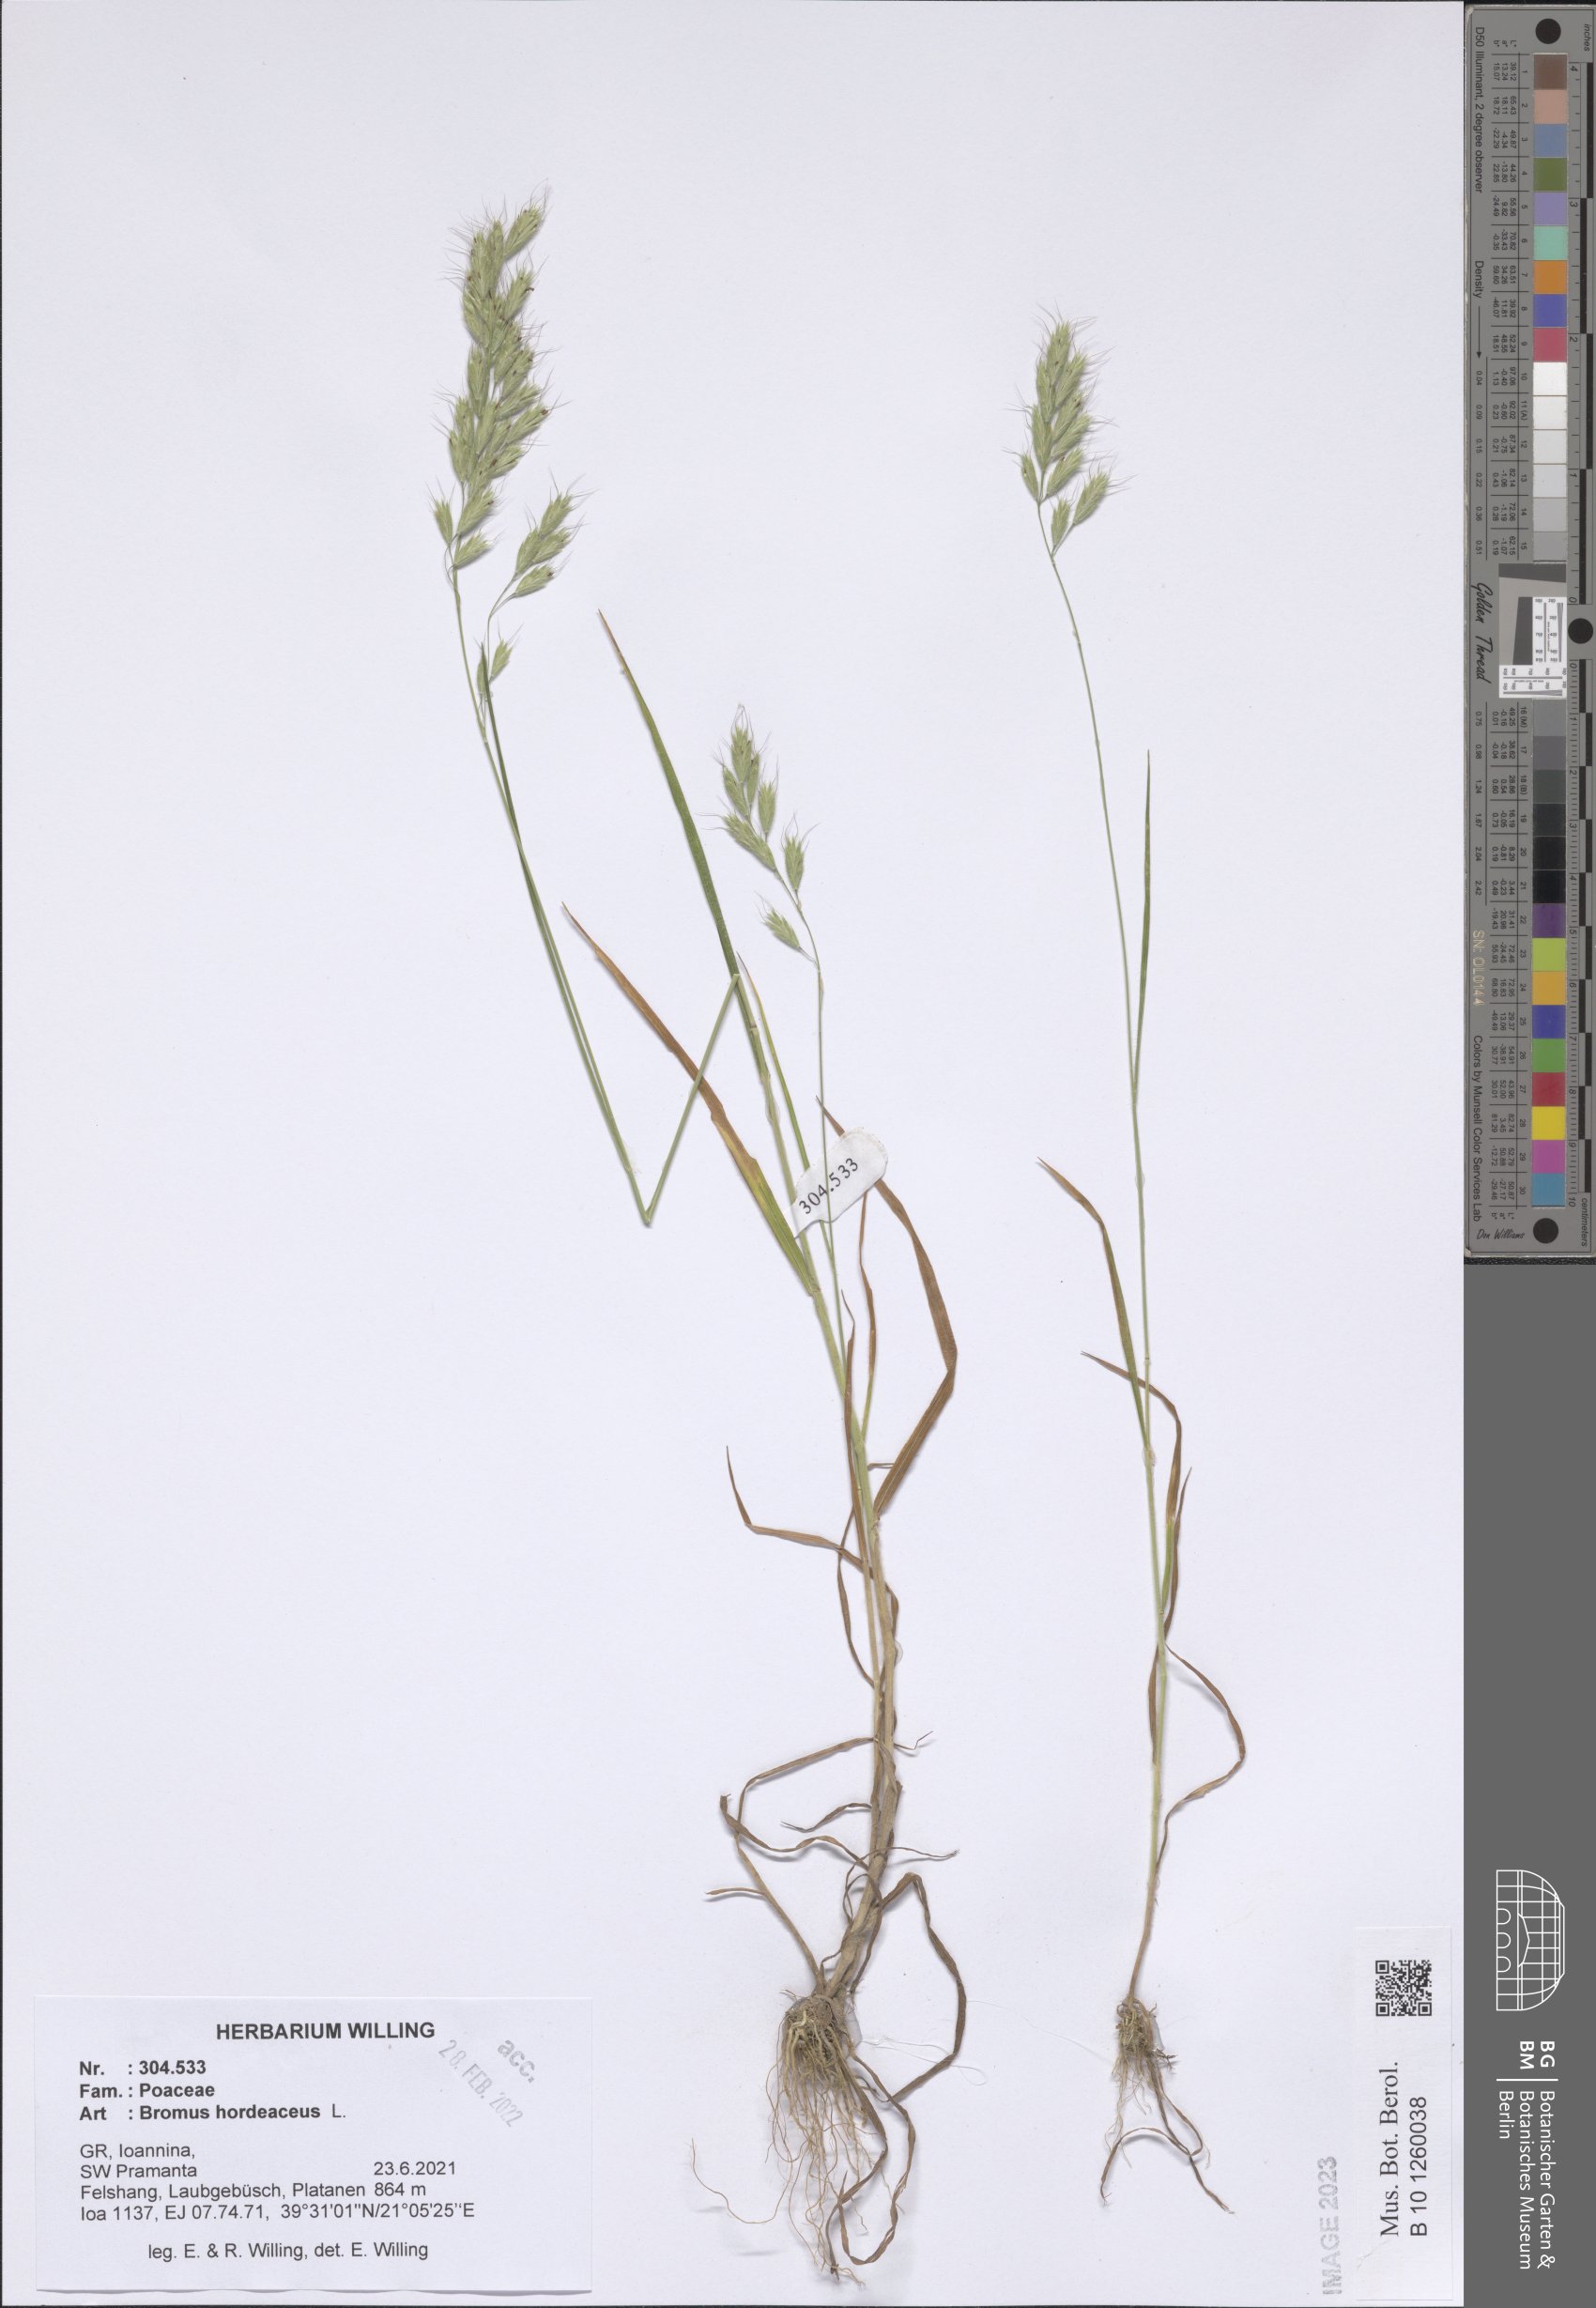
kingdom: Plantae
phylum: Tracheophyta
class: Liliopsida
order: Poales
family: Poaceae
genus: Bromus
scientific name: Bromus hordeaceus
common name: Soft brome
